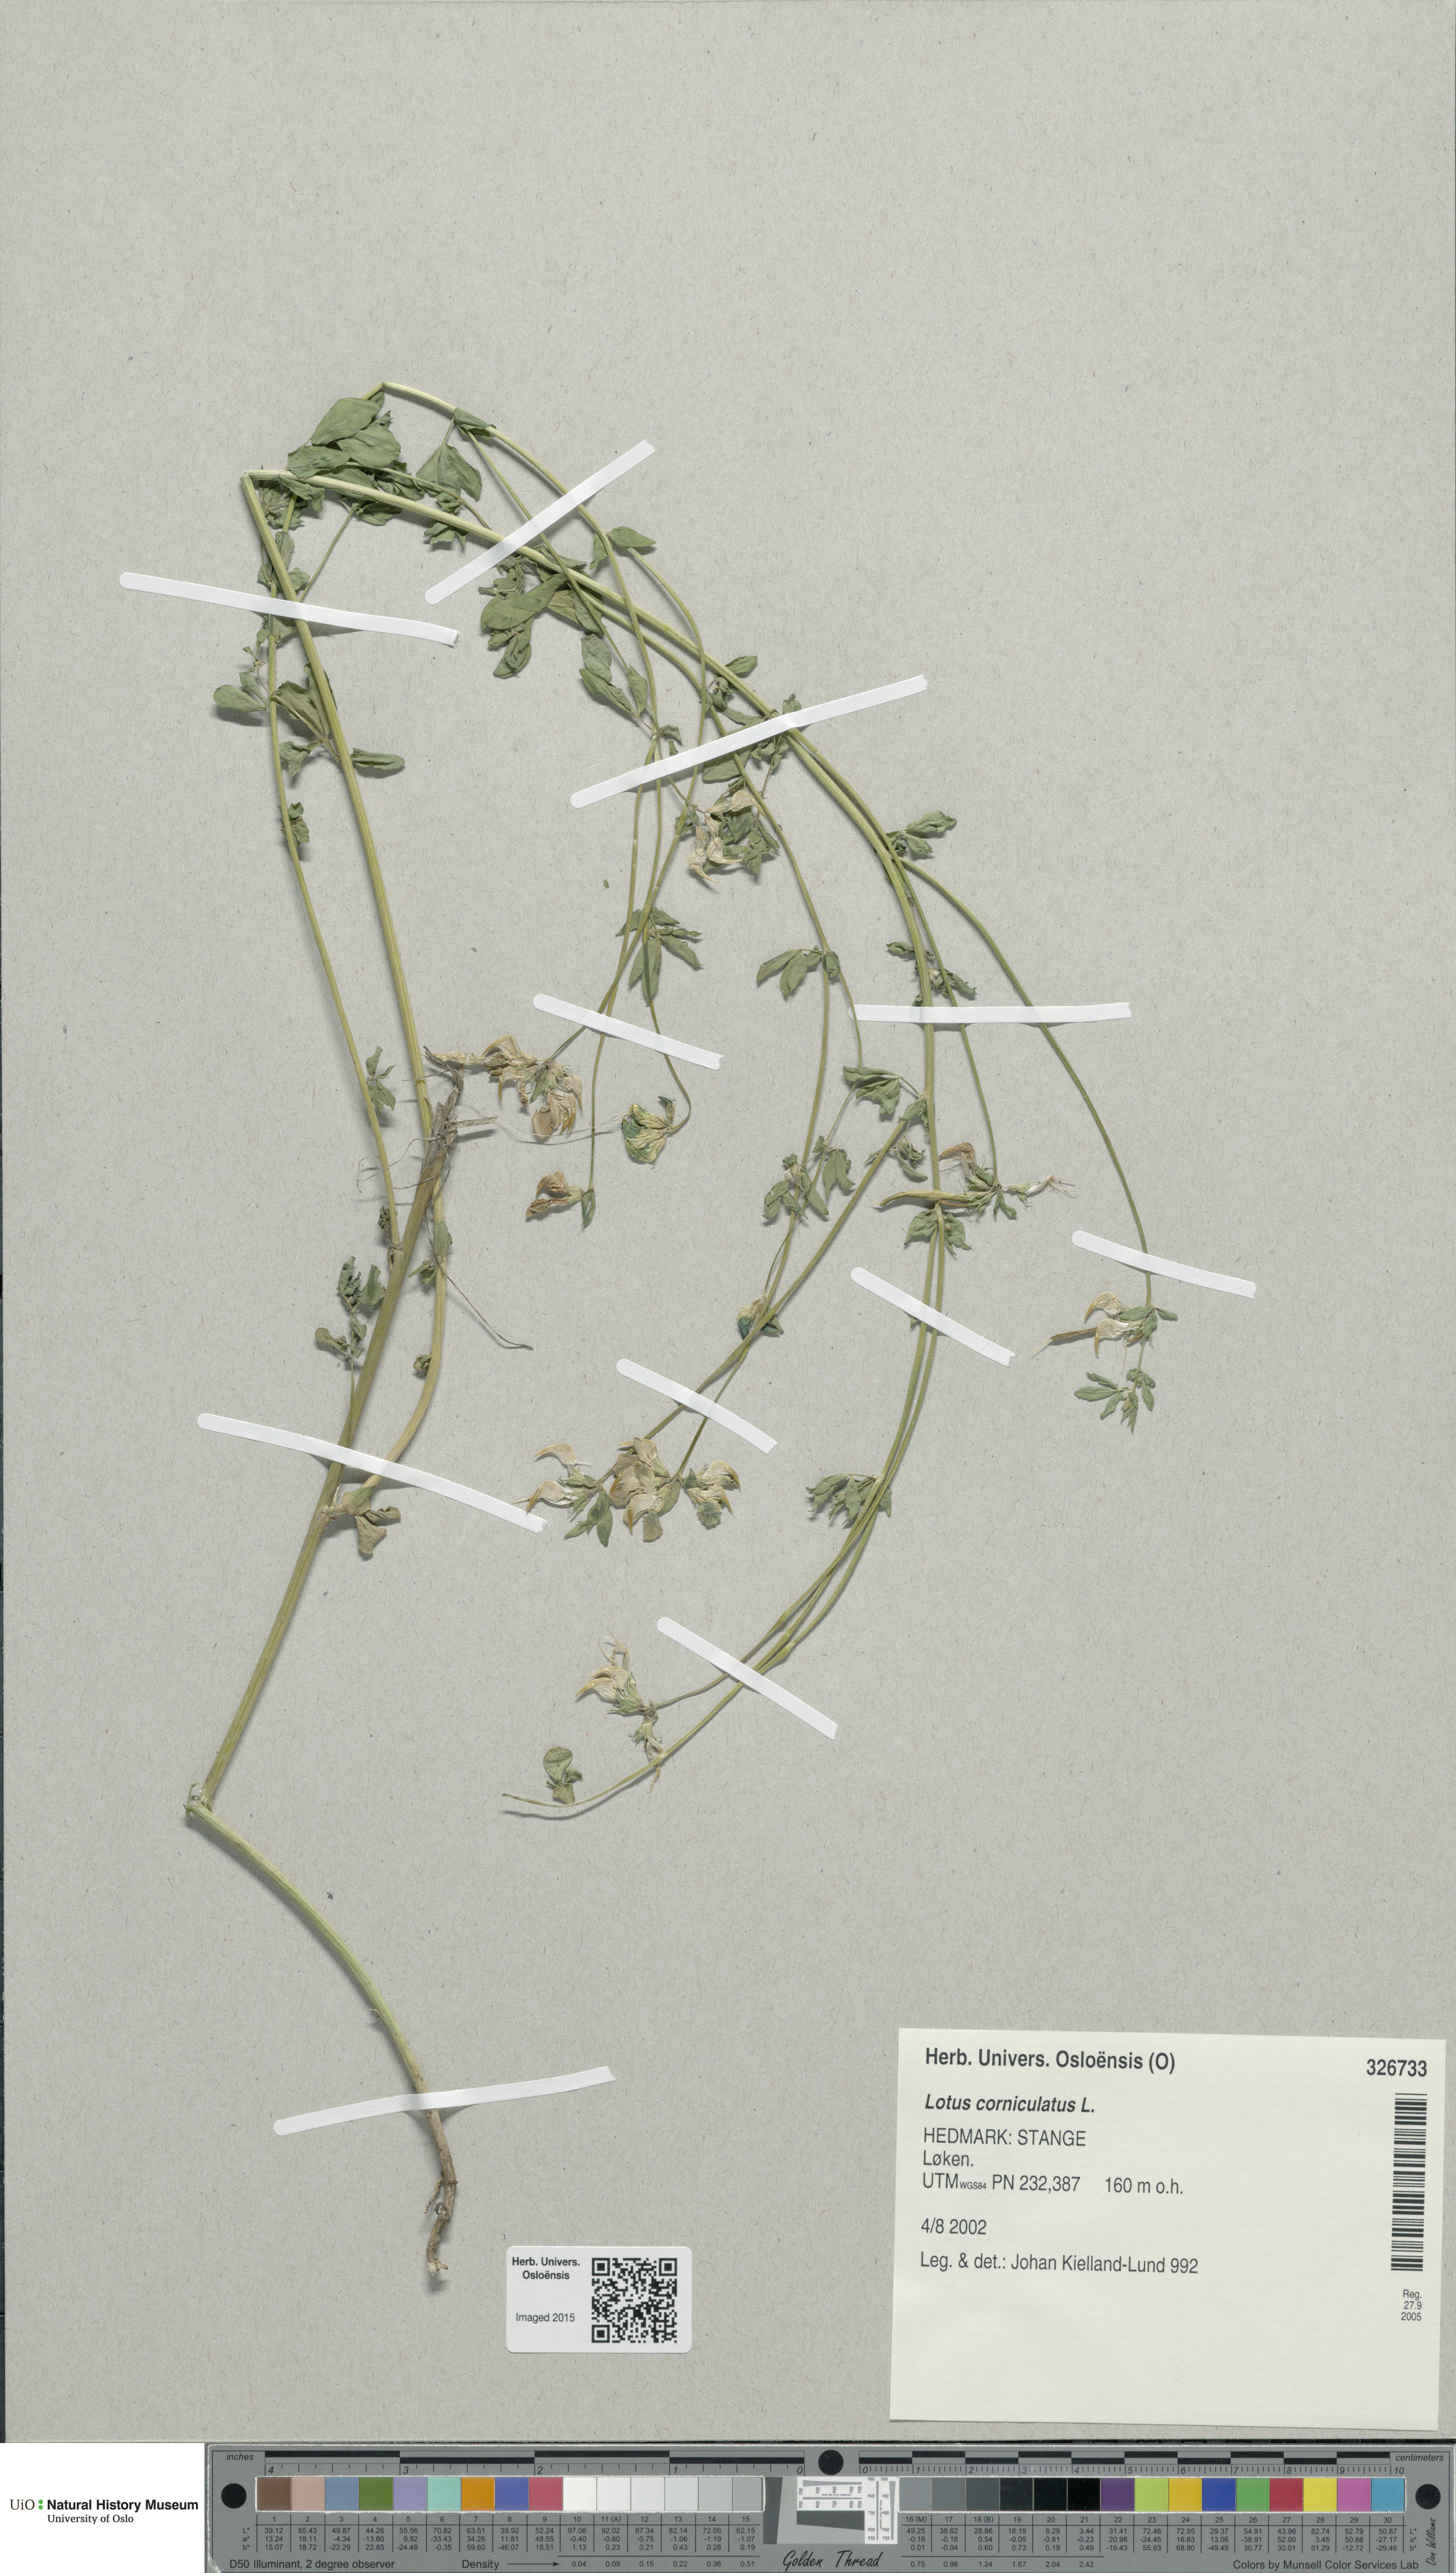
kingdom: Plantae
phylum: Tracheophyta
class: Magnoliopsida
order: Fabales
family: Fabaceae
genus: Lotus
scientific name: Lotus corniculatus
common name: Common bird's-foot-trefoil
